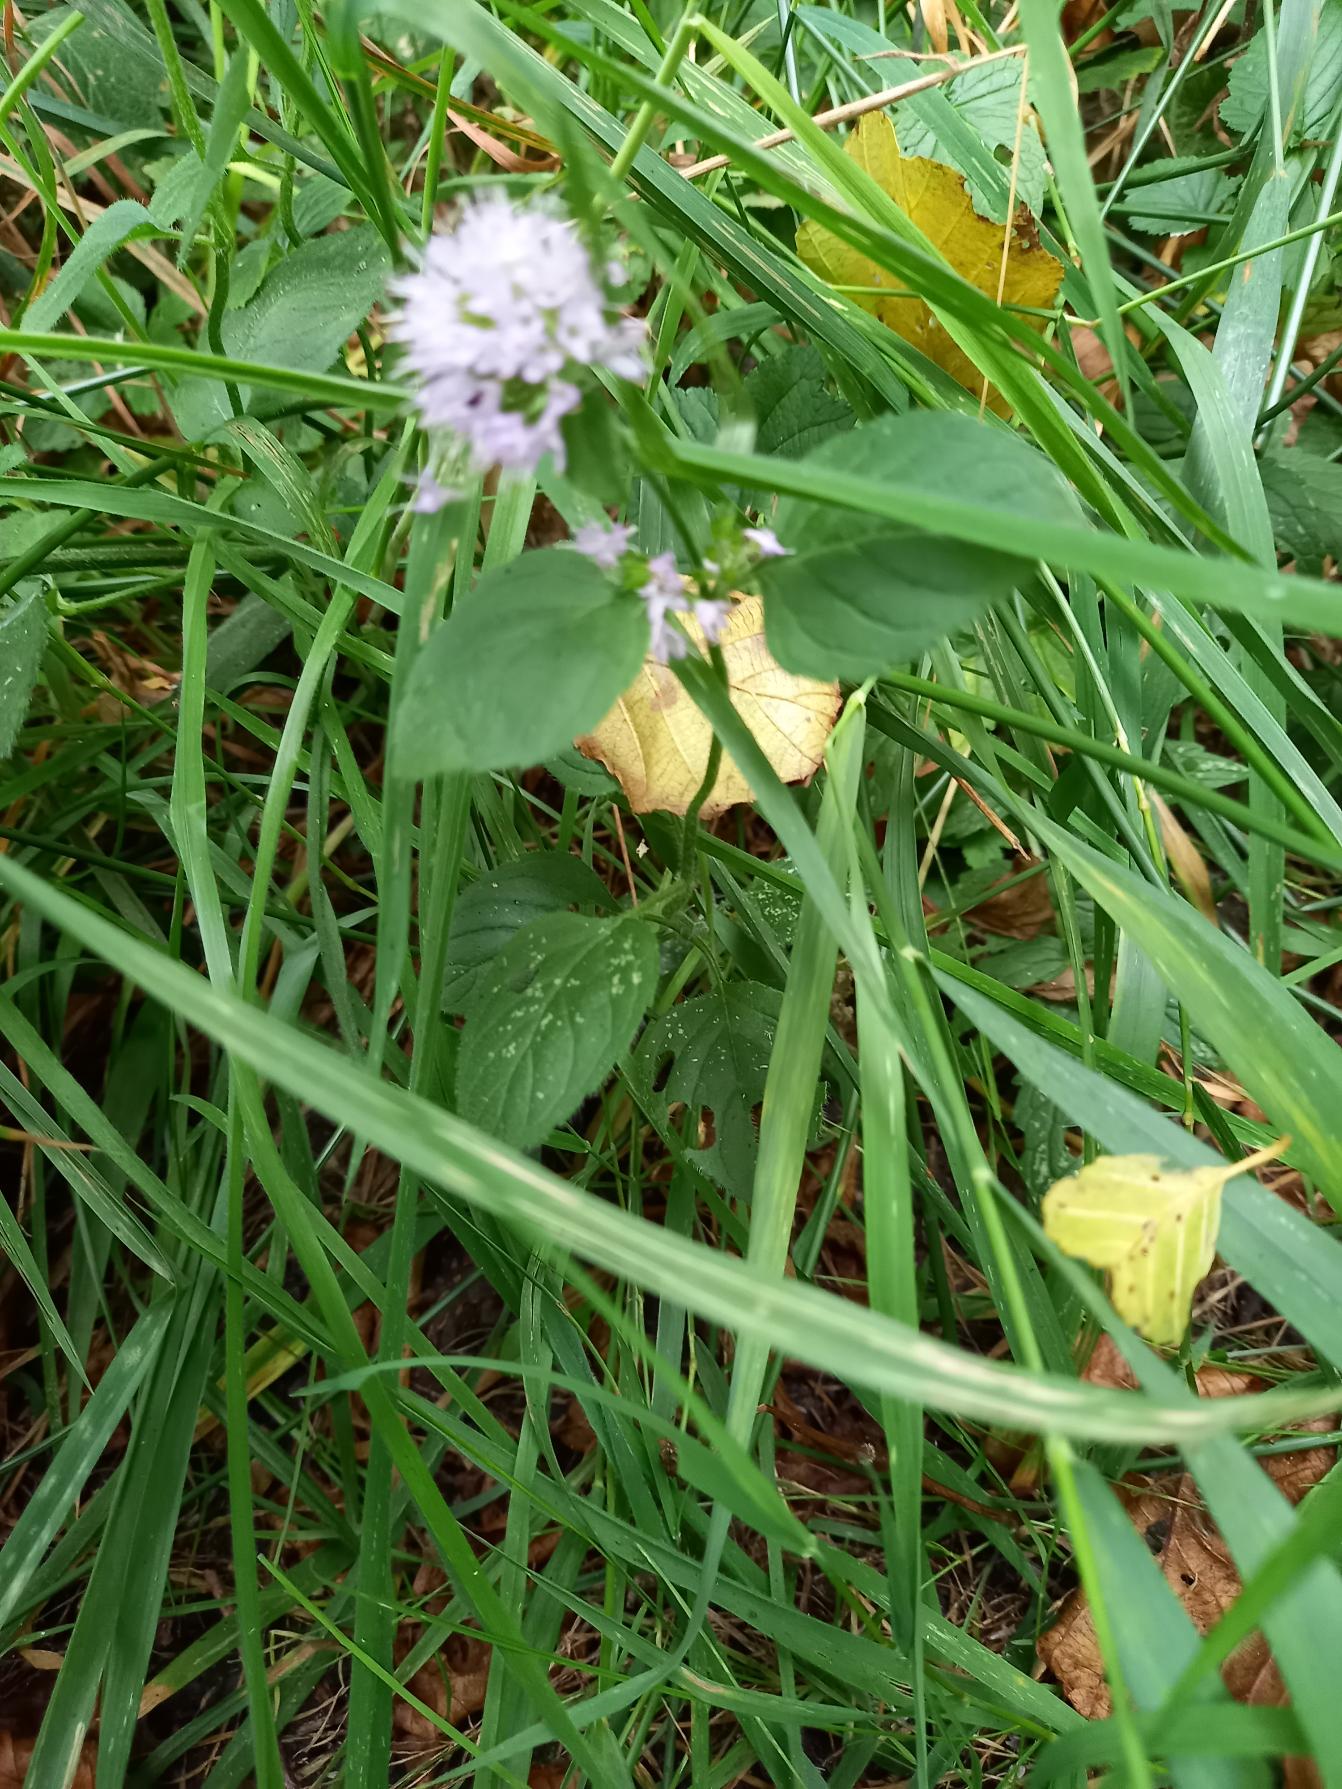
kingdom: Plantae
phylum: Tracheophyta
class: Magnoliopsida
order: Lamiales
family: Lamiaceae
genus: Mentha
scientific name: Mentha aquatica
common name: Vand-mynte
